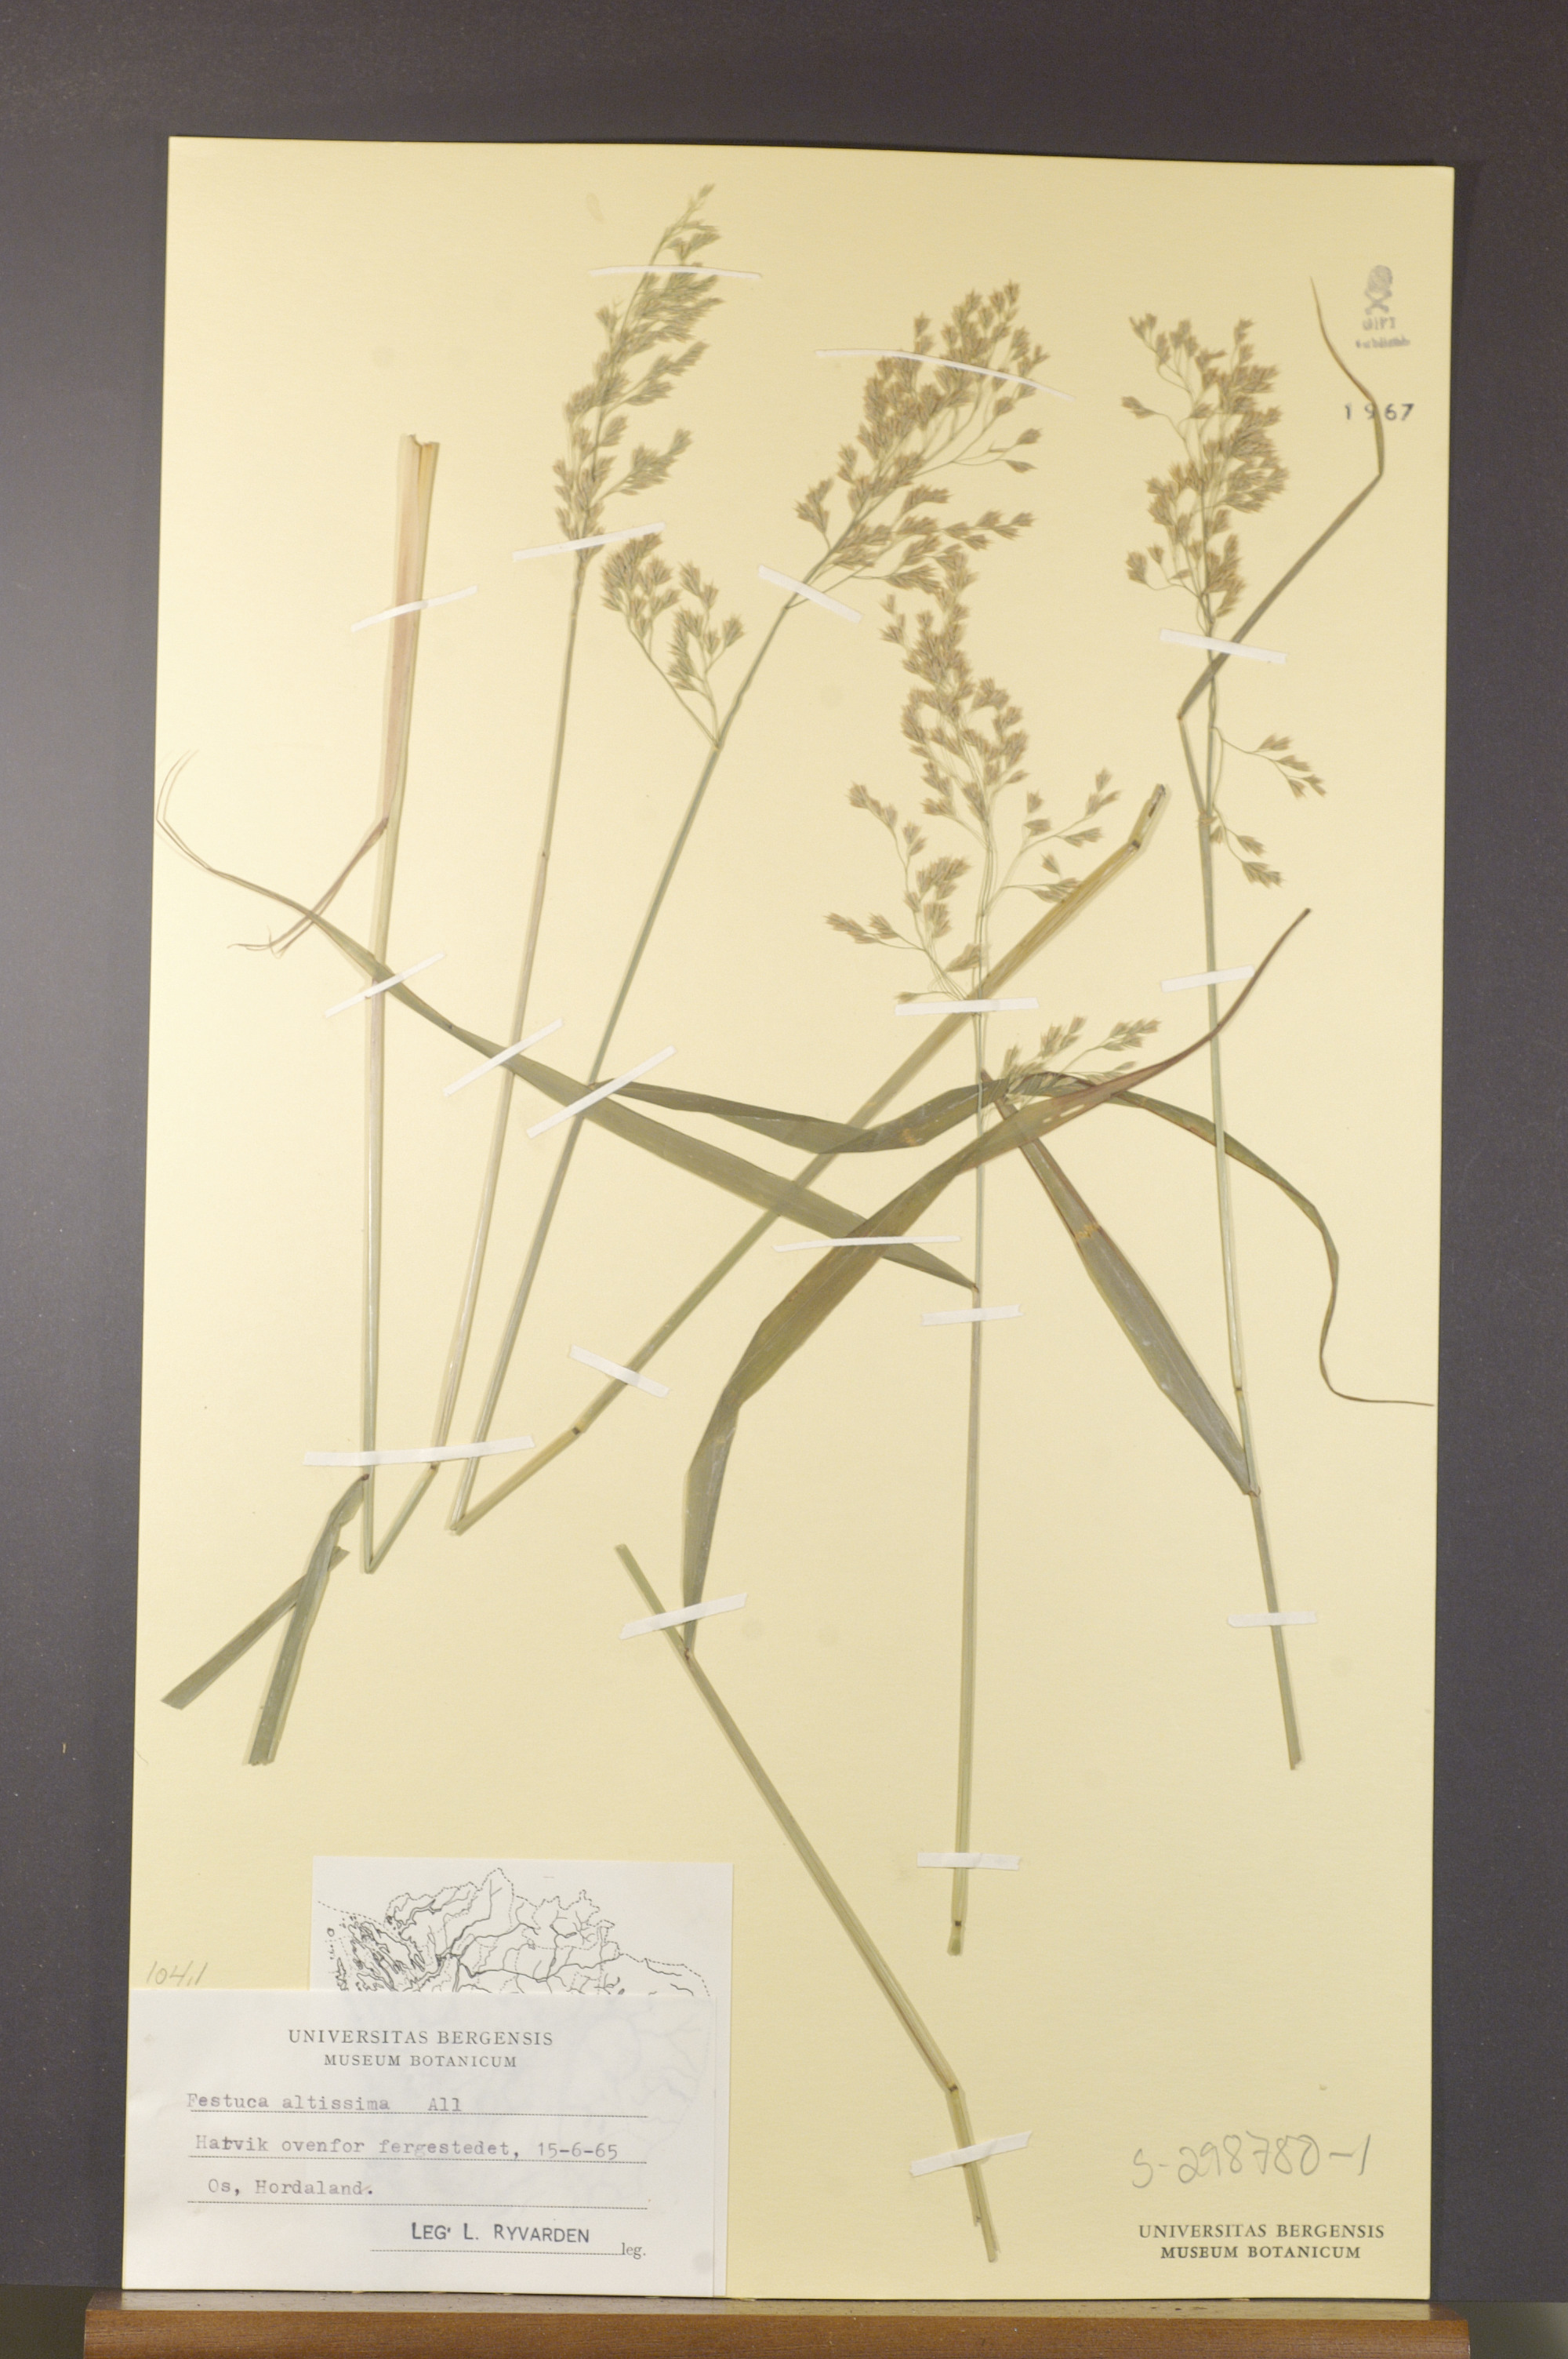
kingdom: Plantae
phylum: Tracheophyta
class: Liliopsida
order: Poales
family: Poaceae
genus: Festuca
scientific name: Festuca altissima
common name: Wood fescue
